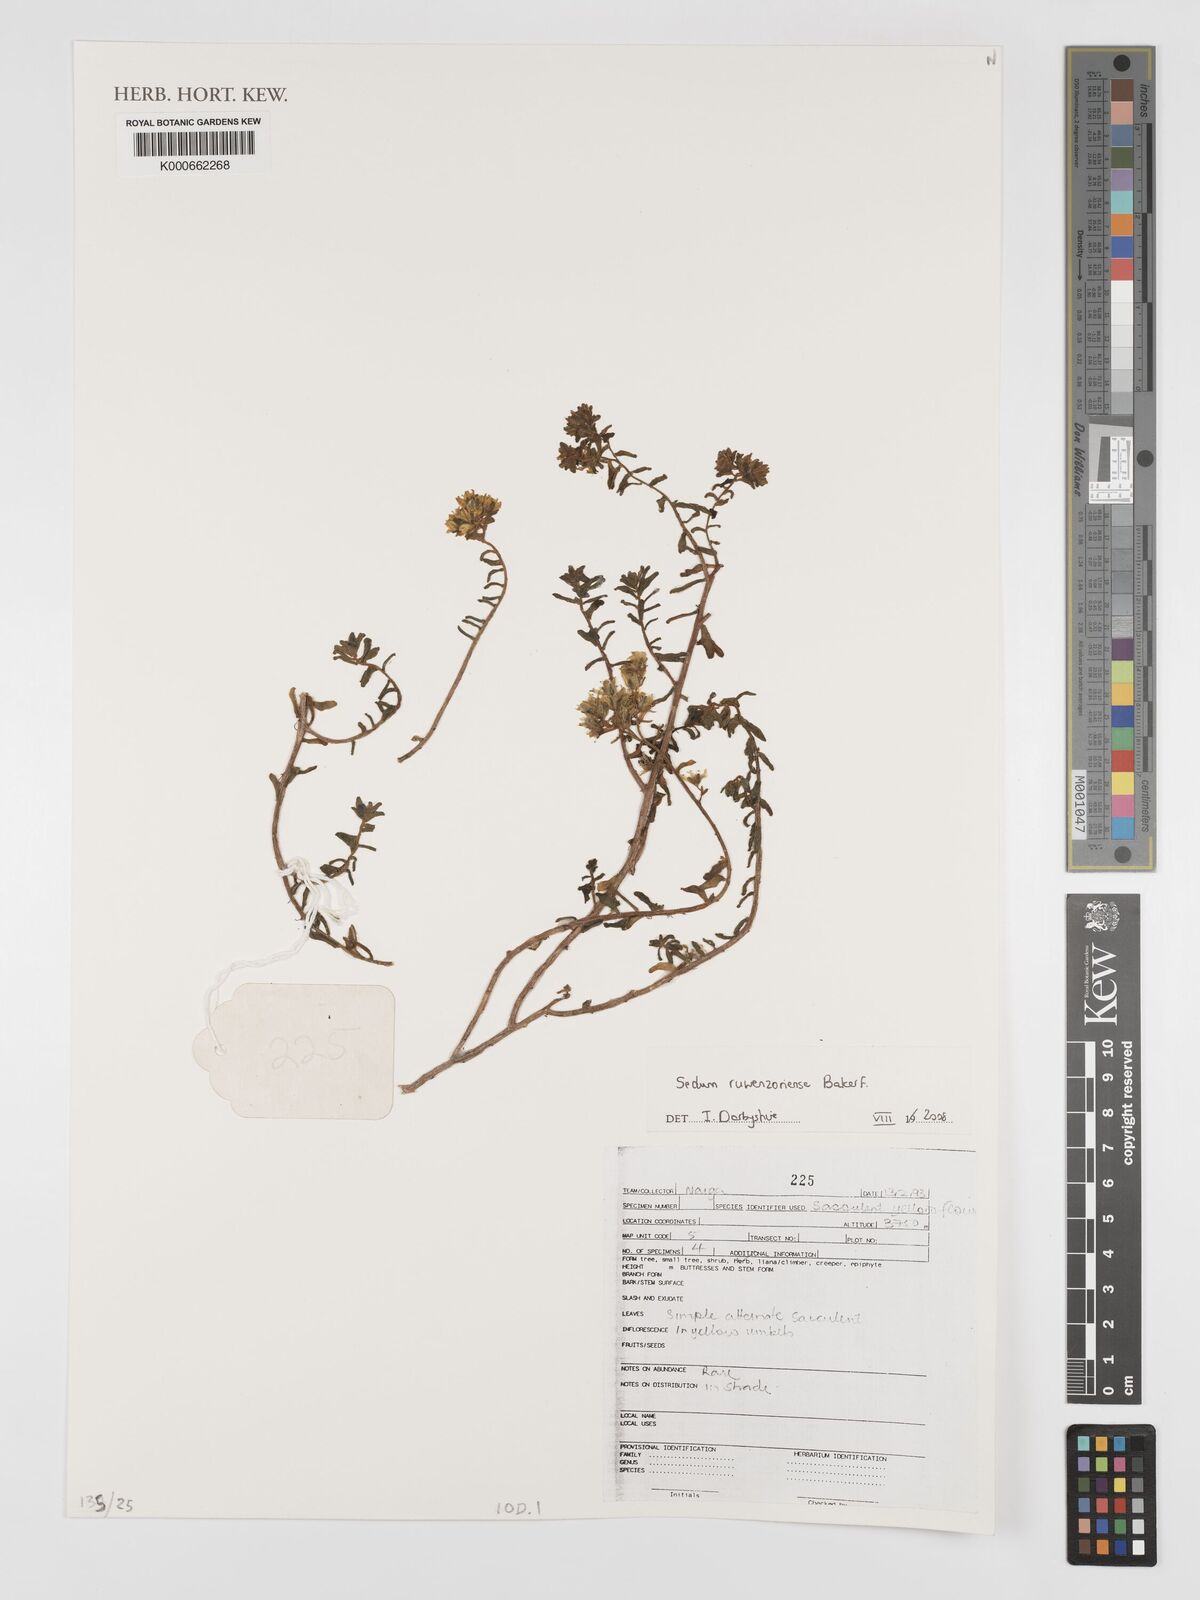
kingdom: Plantae
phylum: Tracheophyta
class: Magnoliopsida
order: Saxifragales
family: Crassulaceae
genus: Sedum
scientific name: Sedum ruwenzoriense
